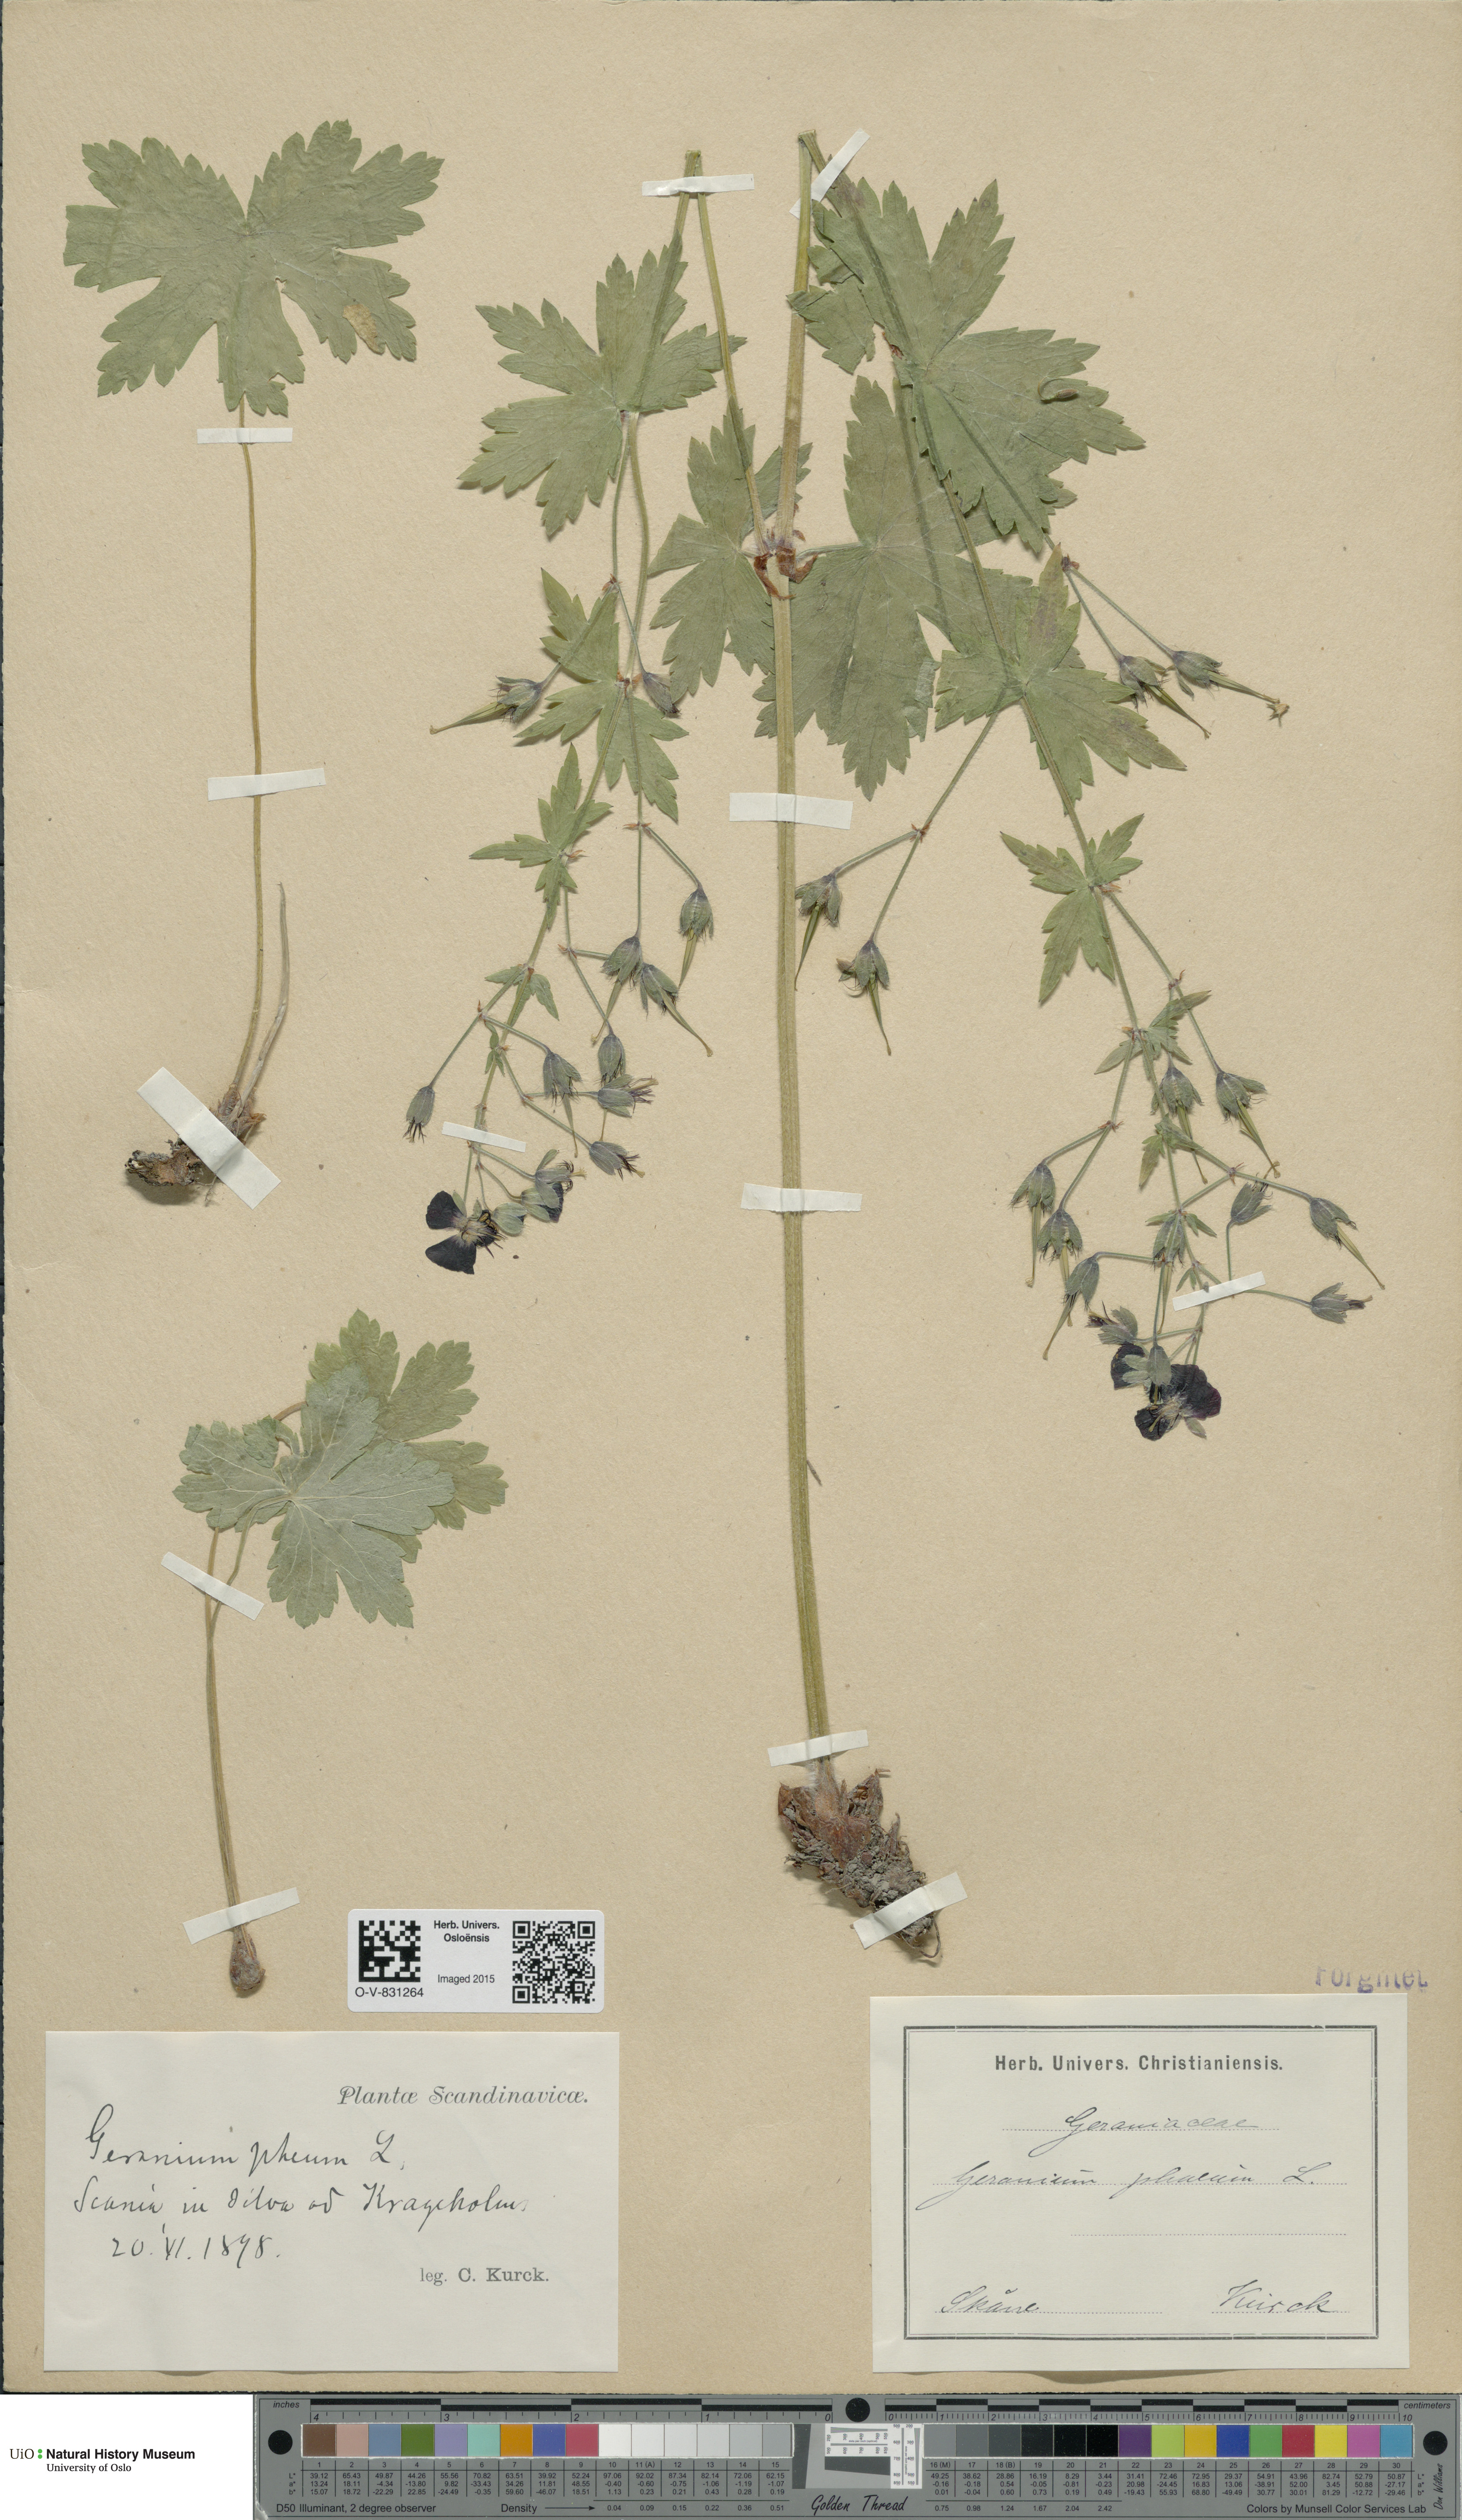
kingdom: Plantae
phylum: Tracheophyta
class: Magnoliopsida
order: Geraniales
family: Geraniaceae
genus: Geranium
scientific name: Geranium phaeum
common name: Dusky crane's-bill
